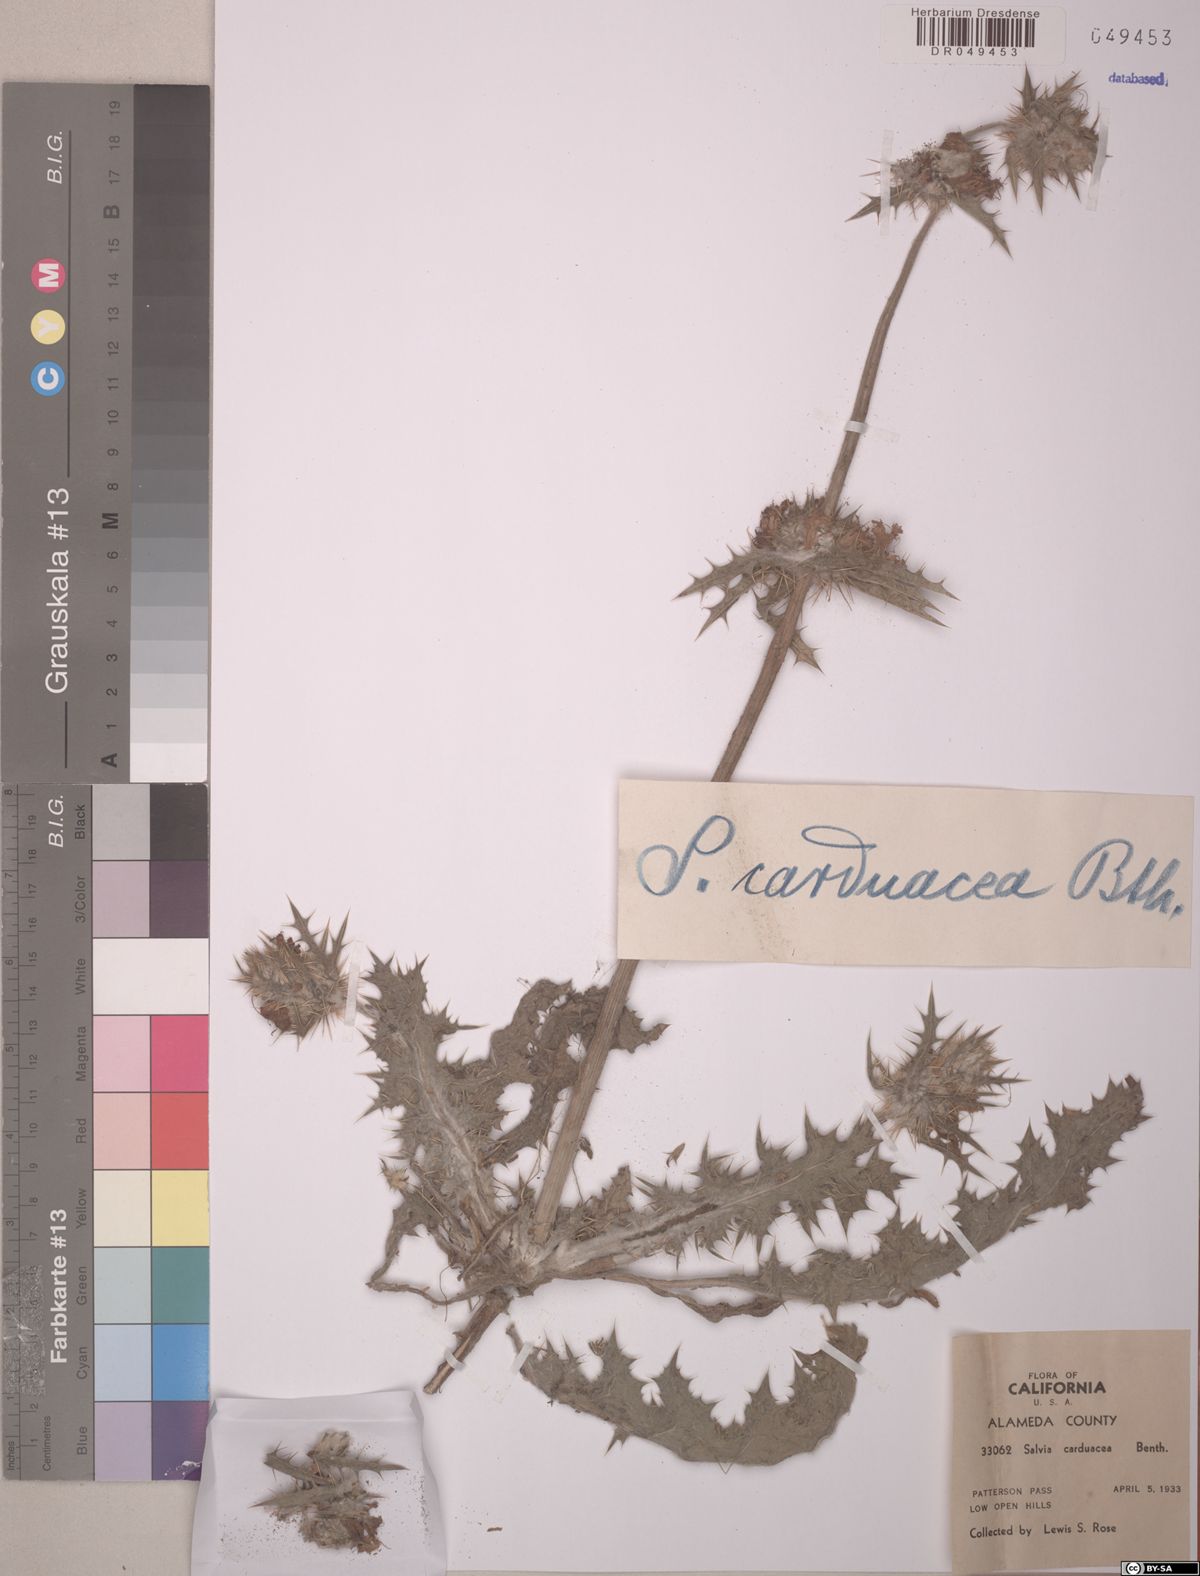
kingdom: Plantae
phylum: Tracheophyta
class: Magnoliopsida
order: Lamiales
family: Lamiaceae
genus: Salvia
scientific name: Salvia carduacea
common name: Thistle sage
